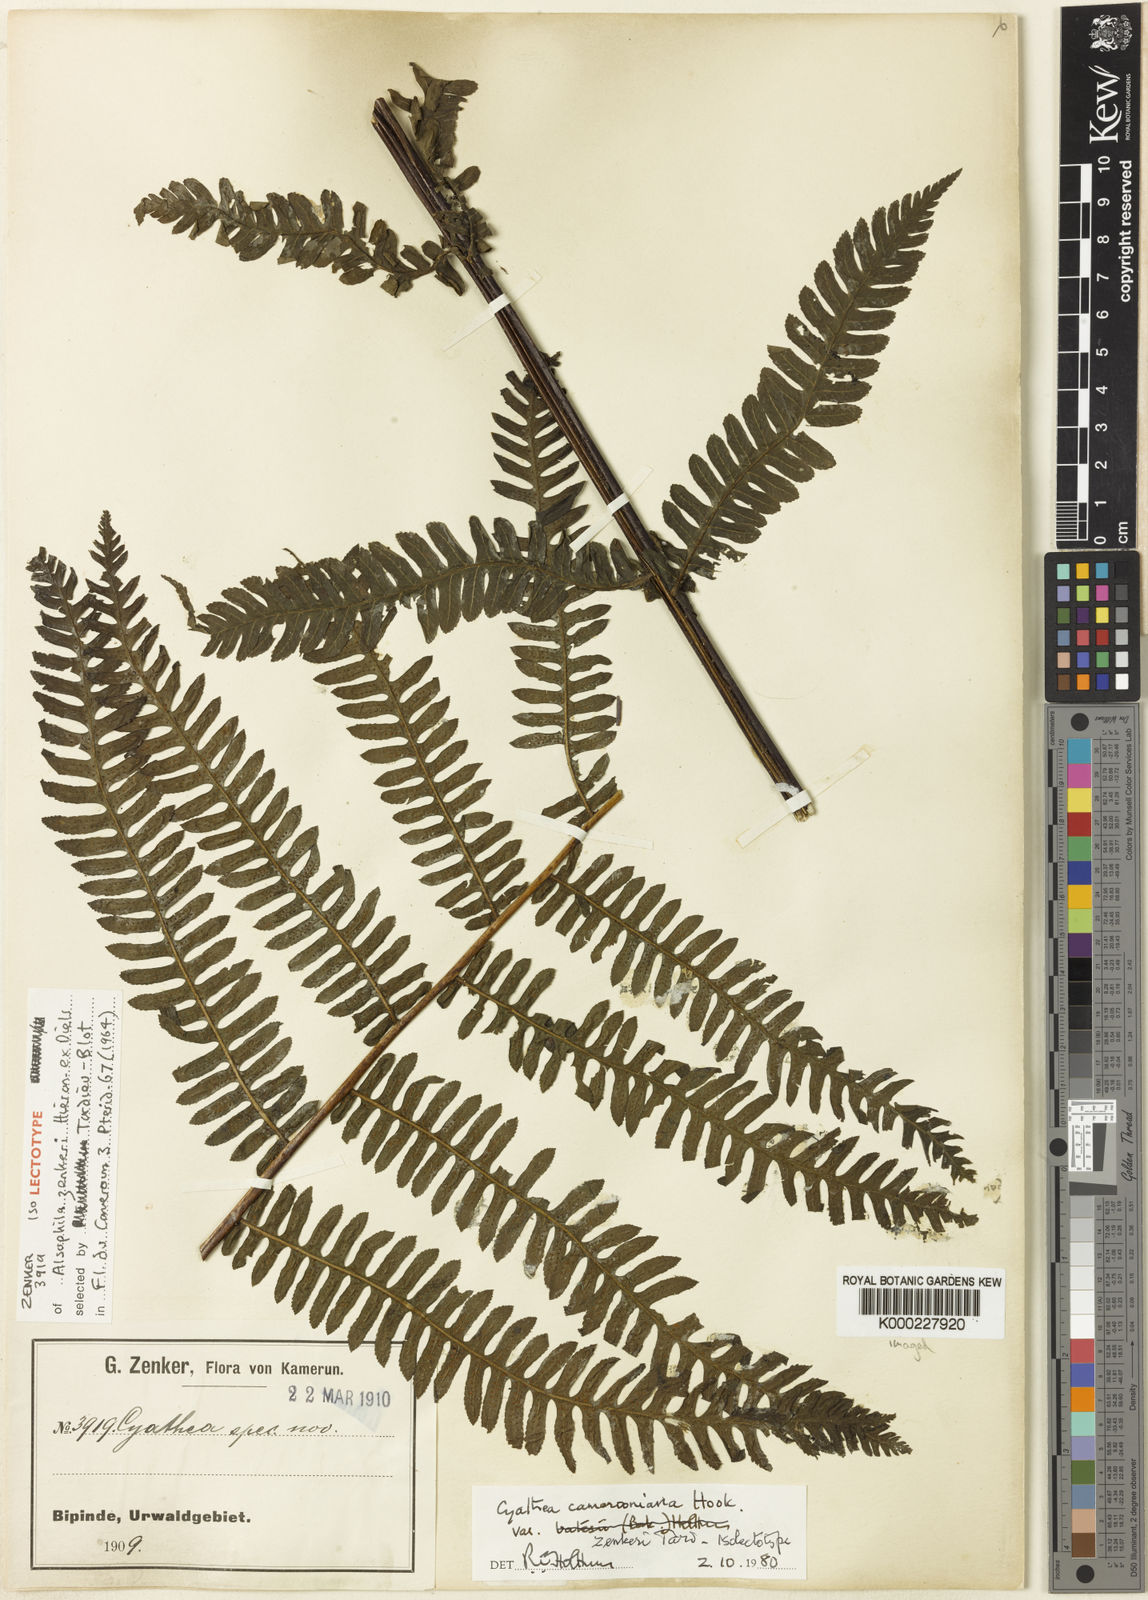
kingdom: Plantae
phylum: Tracheophyta
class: Polypodiopsida
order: Cyatheales
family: Cyatheaceae
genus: Alsophila
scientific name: Alsophila camerooniana
